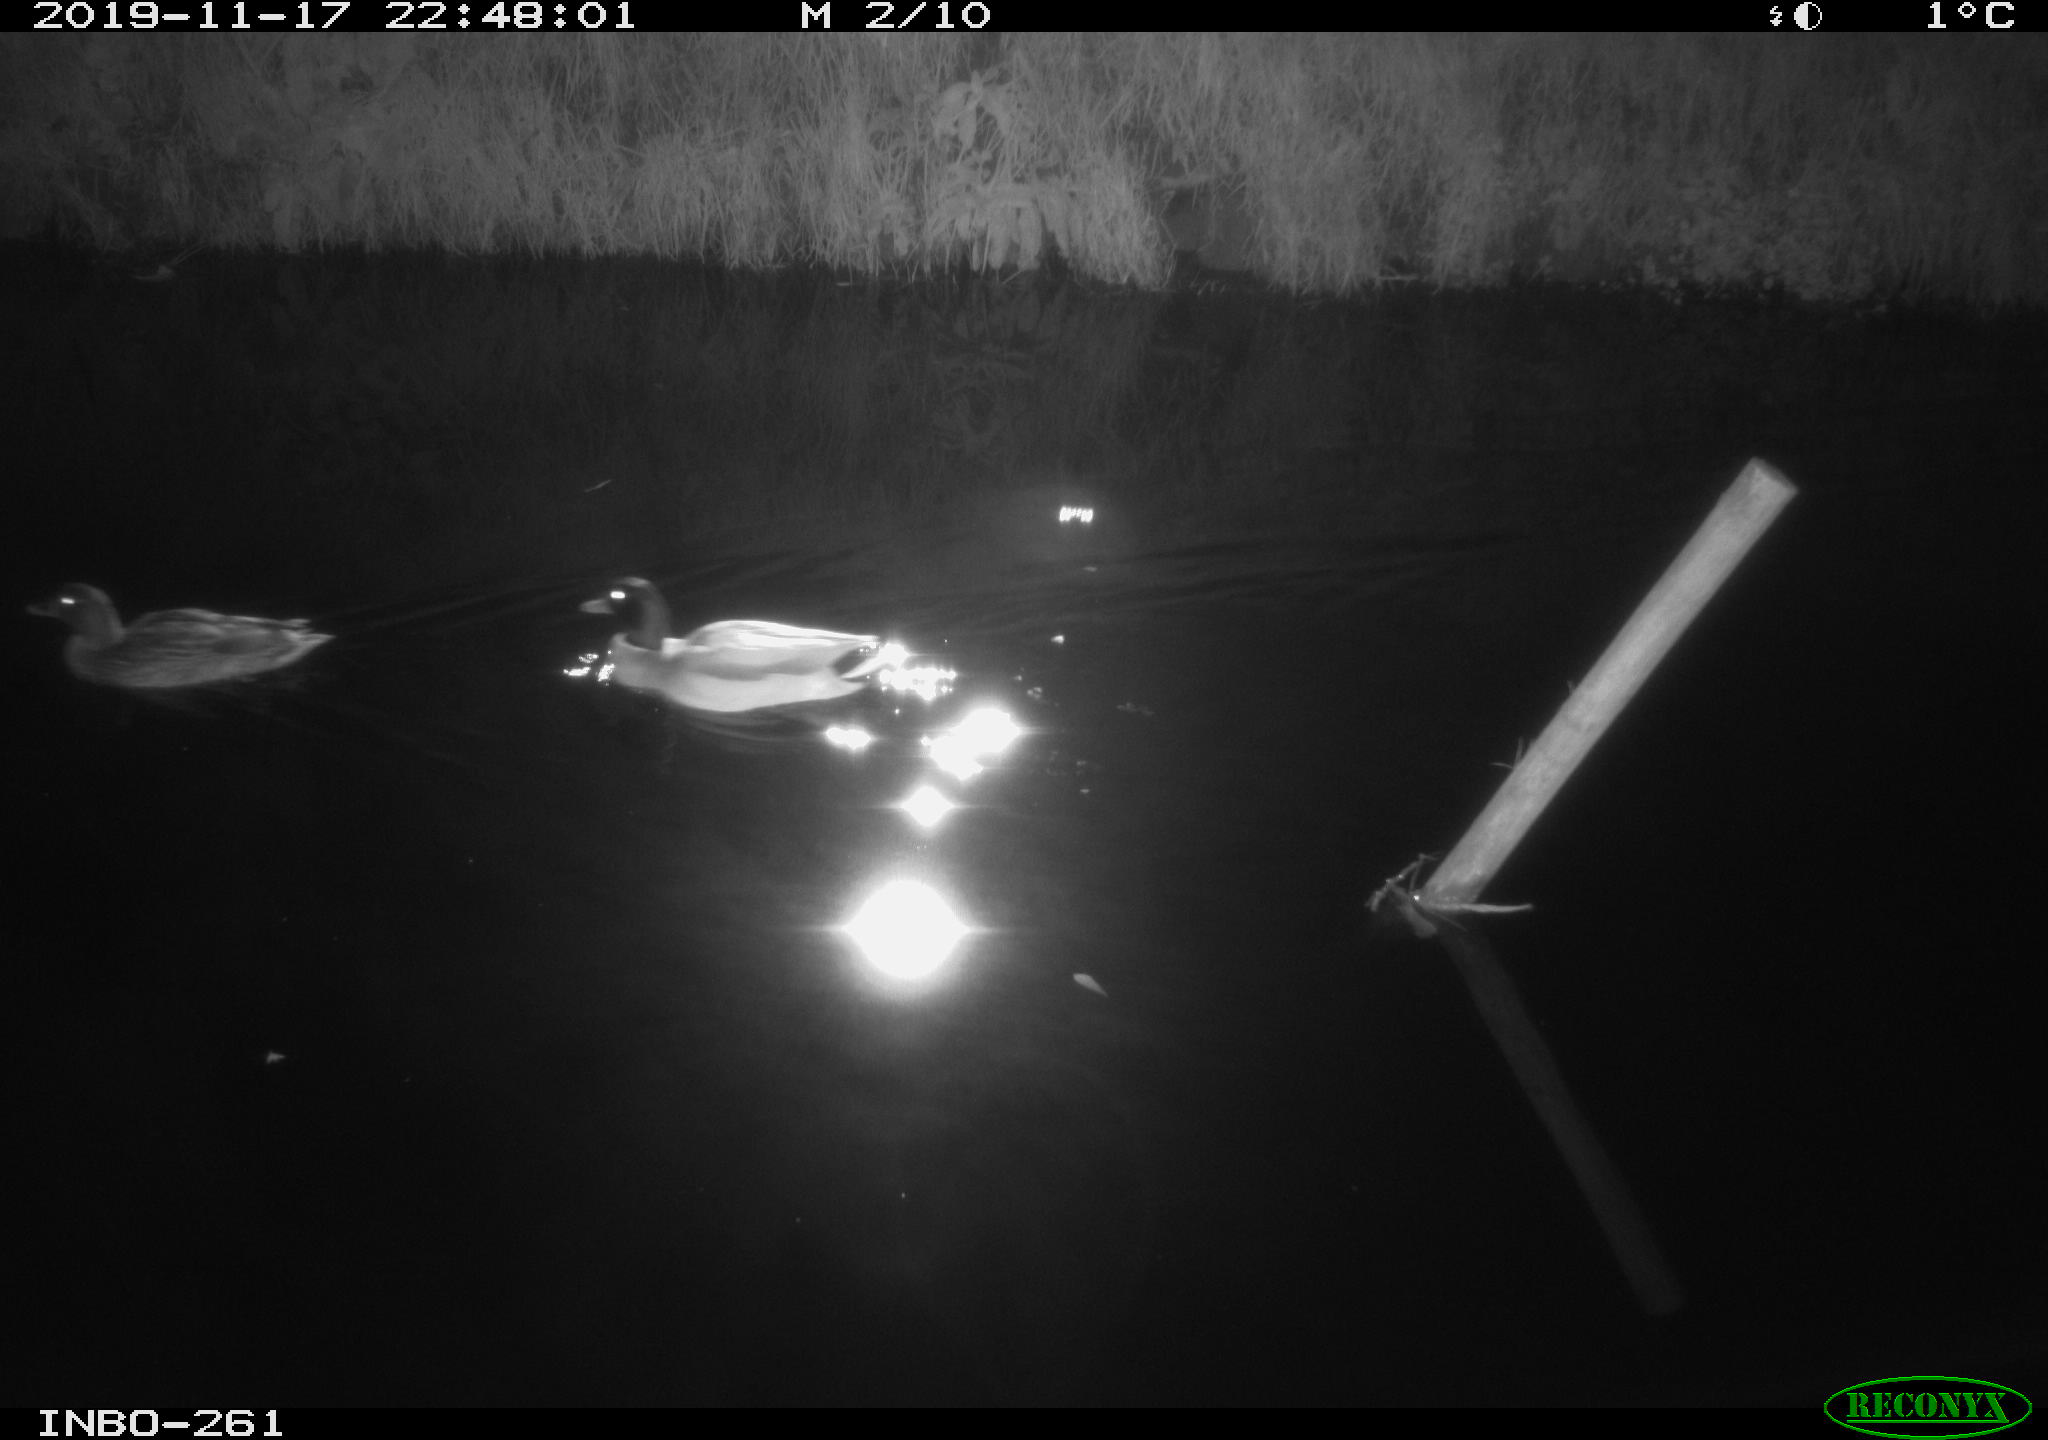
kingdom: Animalia
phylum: Chordata
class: Aves
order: Anseriformes
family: Anatidae
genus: Anas
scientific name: Anas platyrhynchos
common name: Mallard
